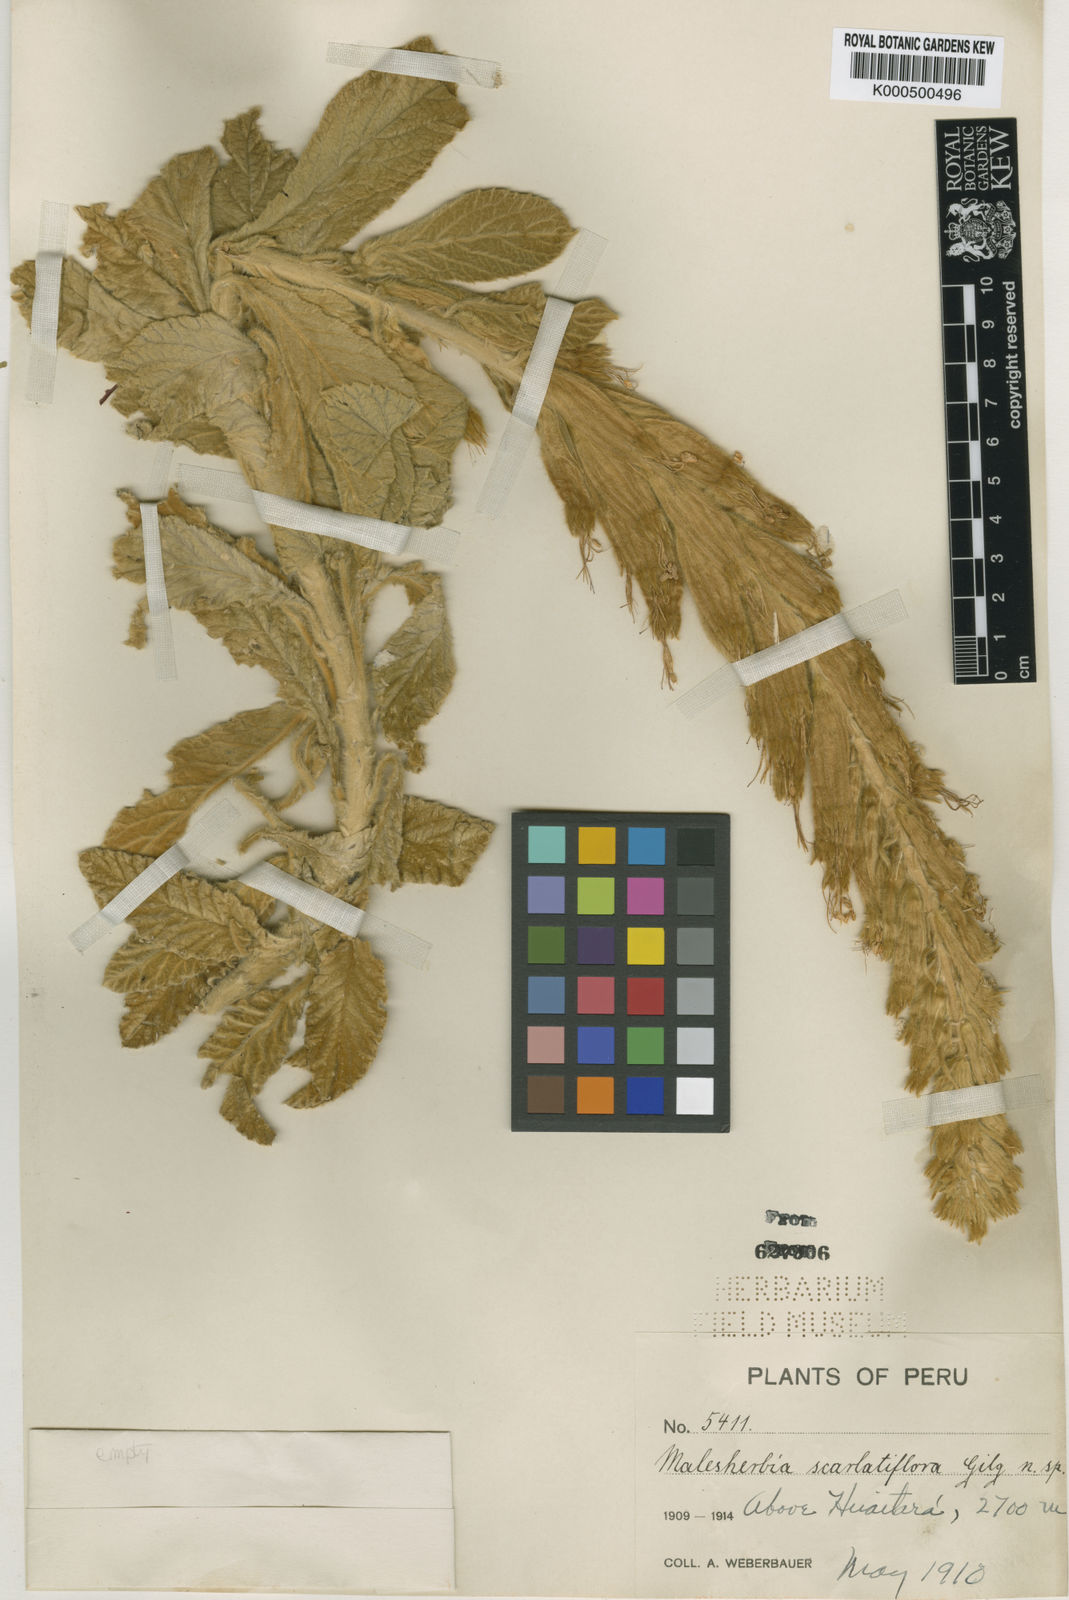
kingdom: Plantae
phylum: Tracheophyta
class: Magnoliopsida
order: Malpighiales
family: Malesherbiaceae
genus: Malesherbia
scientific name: Malesherbia scarlatiflora
